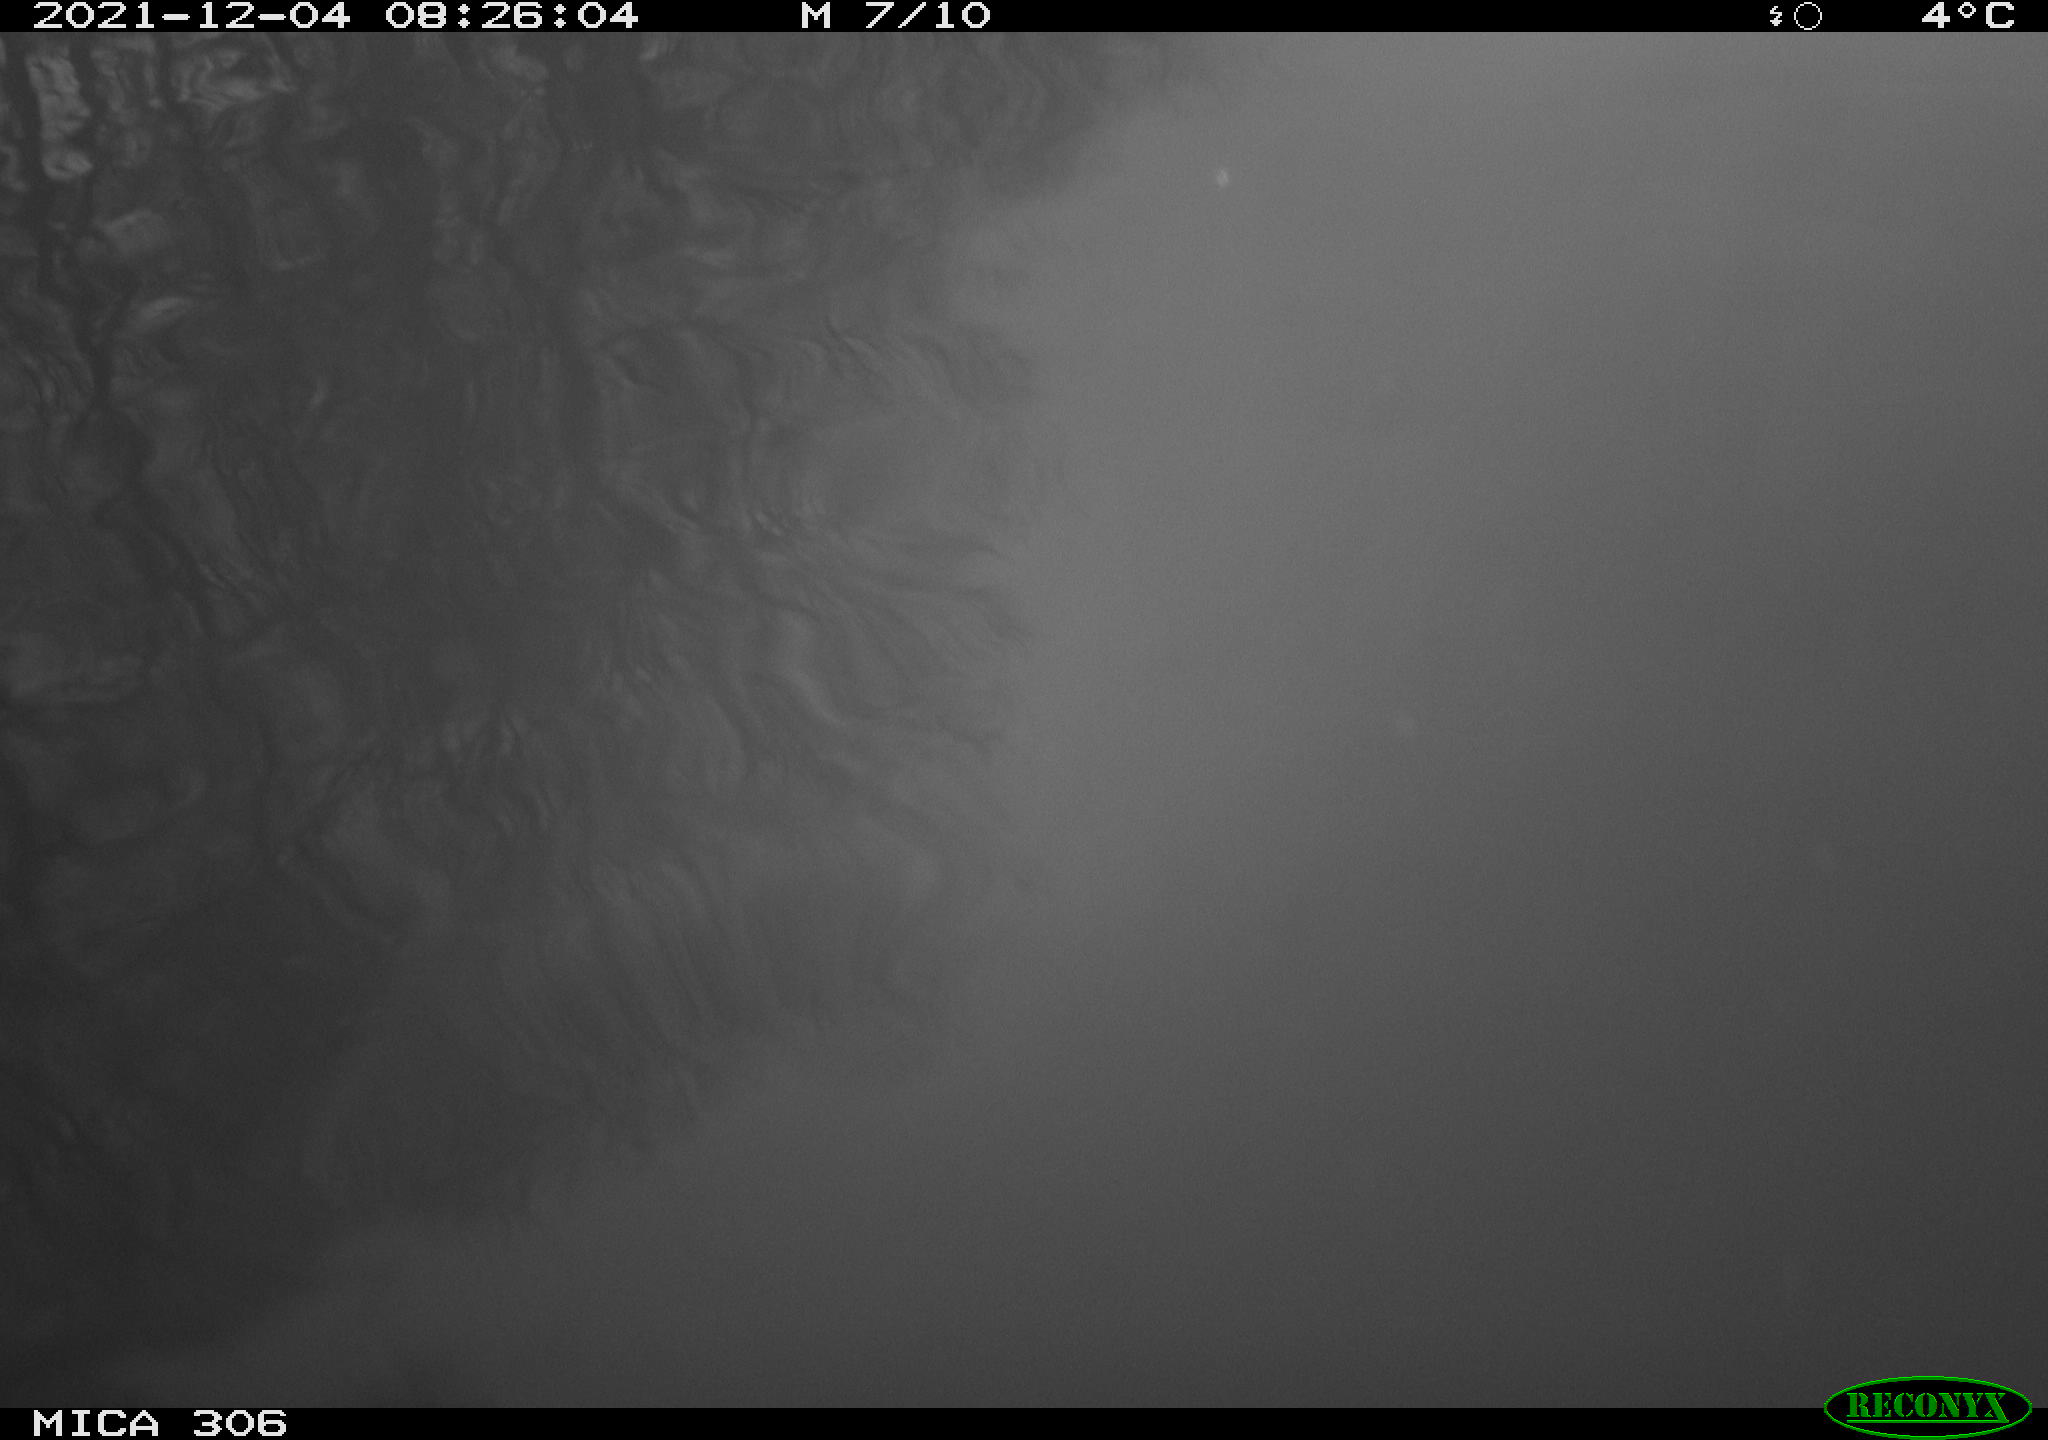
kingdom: Animalia
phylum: Chordata
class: Aves
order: Gruiformes
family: Rallidae
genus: Fulica
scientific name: Fulica atra
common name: Eurasian coot
